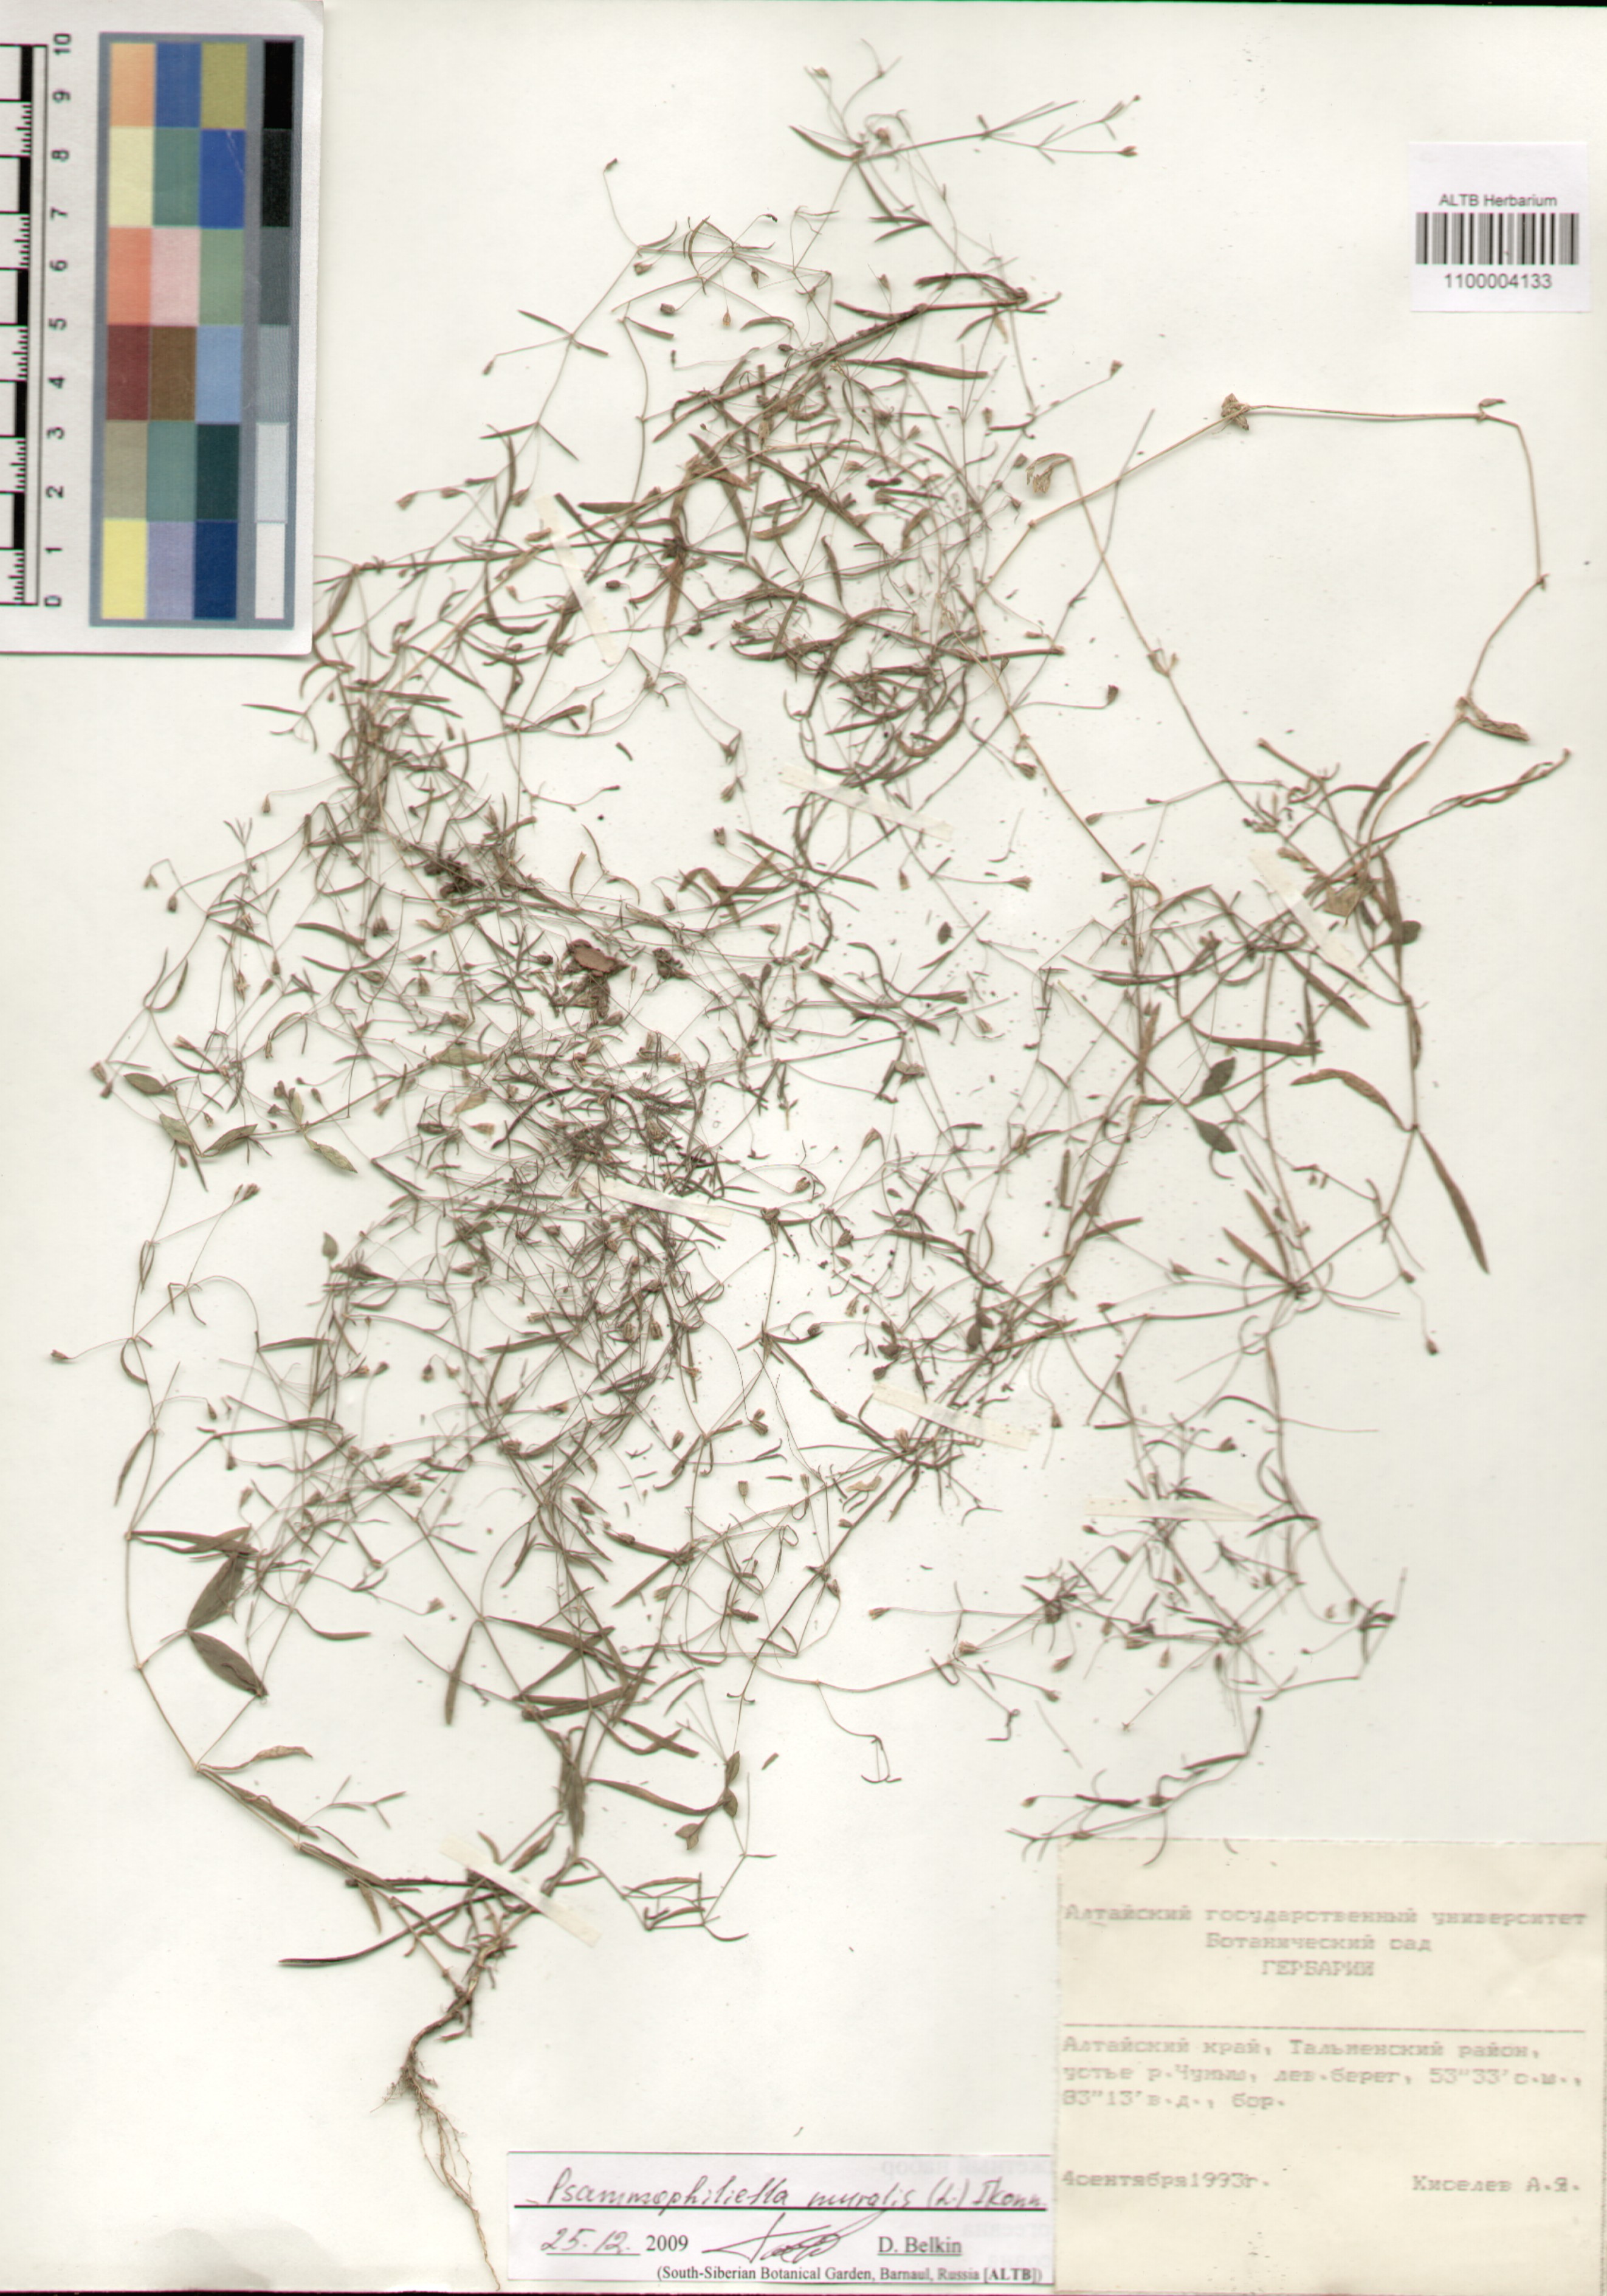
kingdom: Plantae
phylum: Tracheophyta
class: Magnoliopsida
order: Caryophyllales
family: Caryophyllaceae
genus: Psammophiliella
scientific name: Psammophiliella muralis
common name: Cushion baby's-breath
